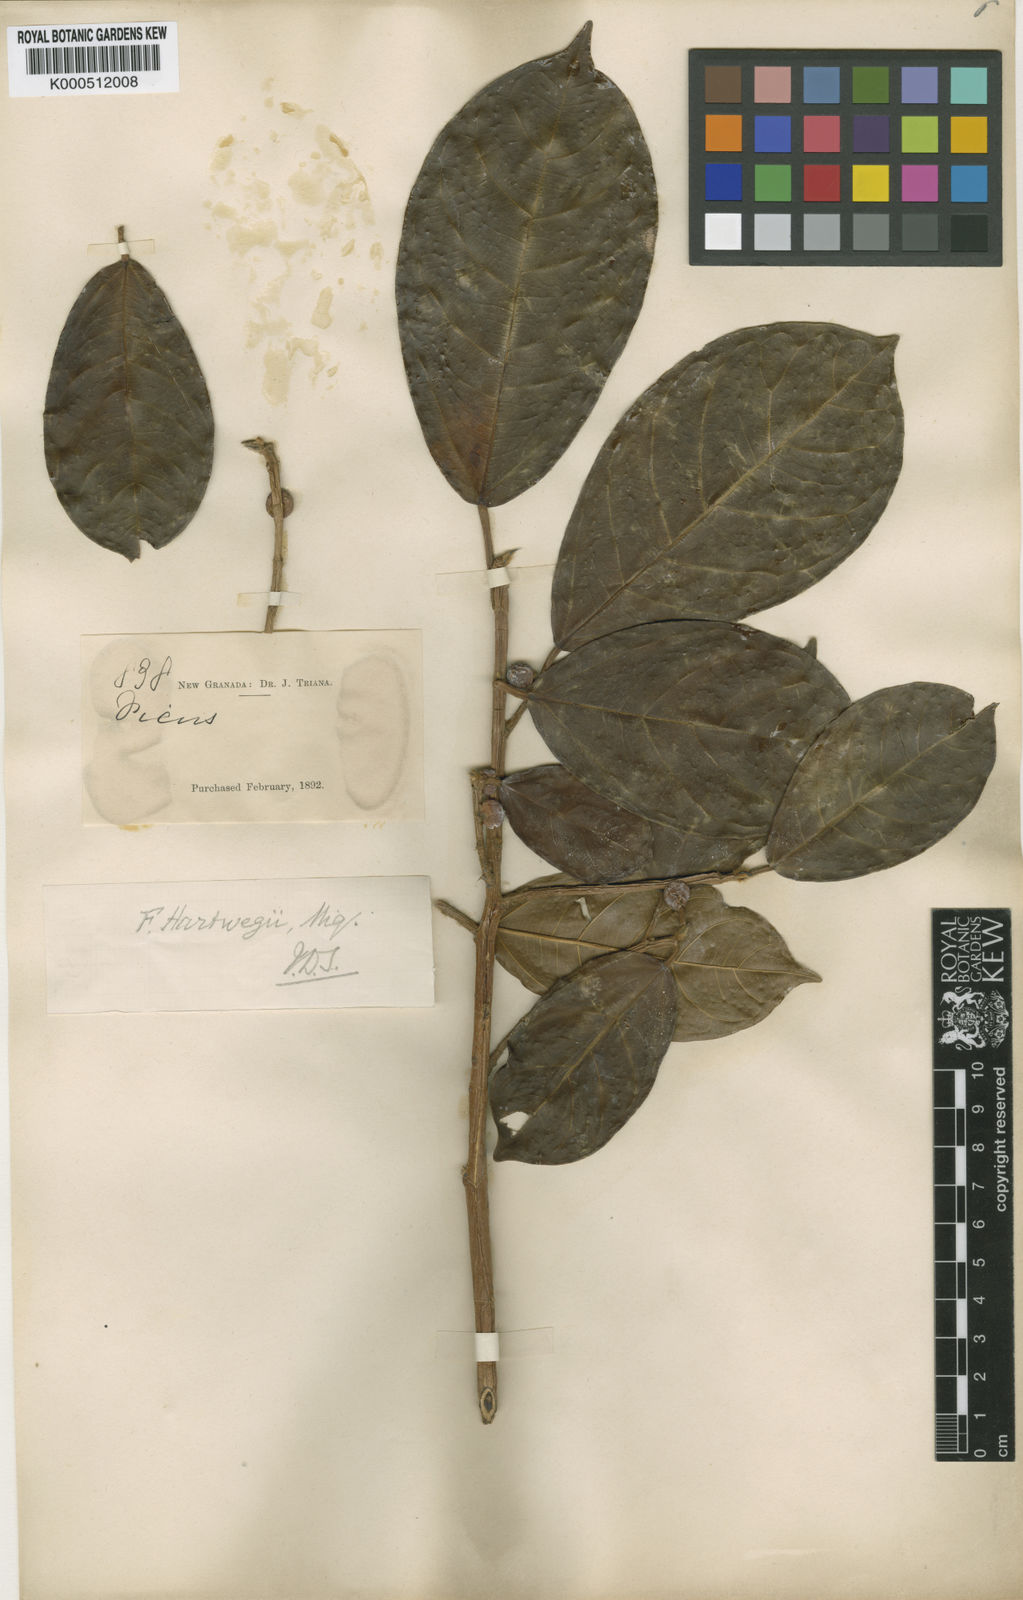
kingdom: Plantae
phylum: Tracheophyta
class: Magnoliopsida
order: Rosales
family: Moraceae
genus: Ficus
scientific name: Ficus hartwegii
